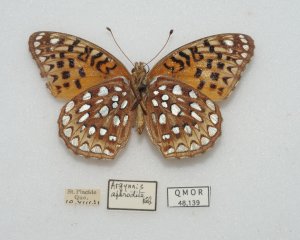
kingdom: Animalia
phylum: Arthropoda
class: Insecta
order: Lepidoptera
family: Nymphalidae
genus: Speyeria
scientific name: Speyeria aphrodite
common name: Aphrodite Fritillary
